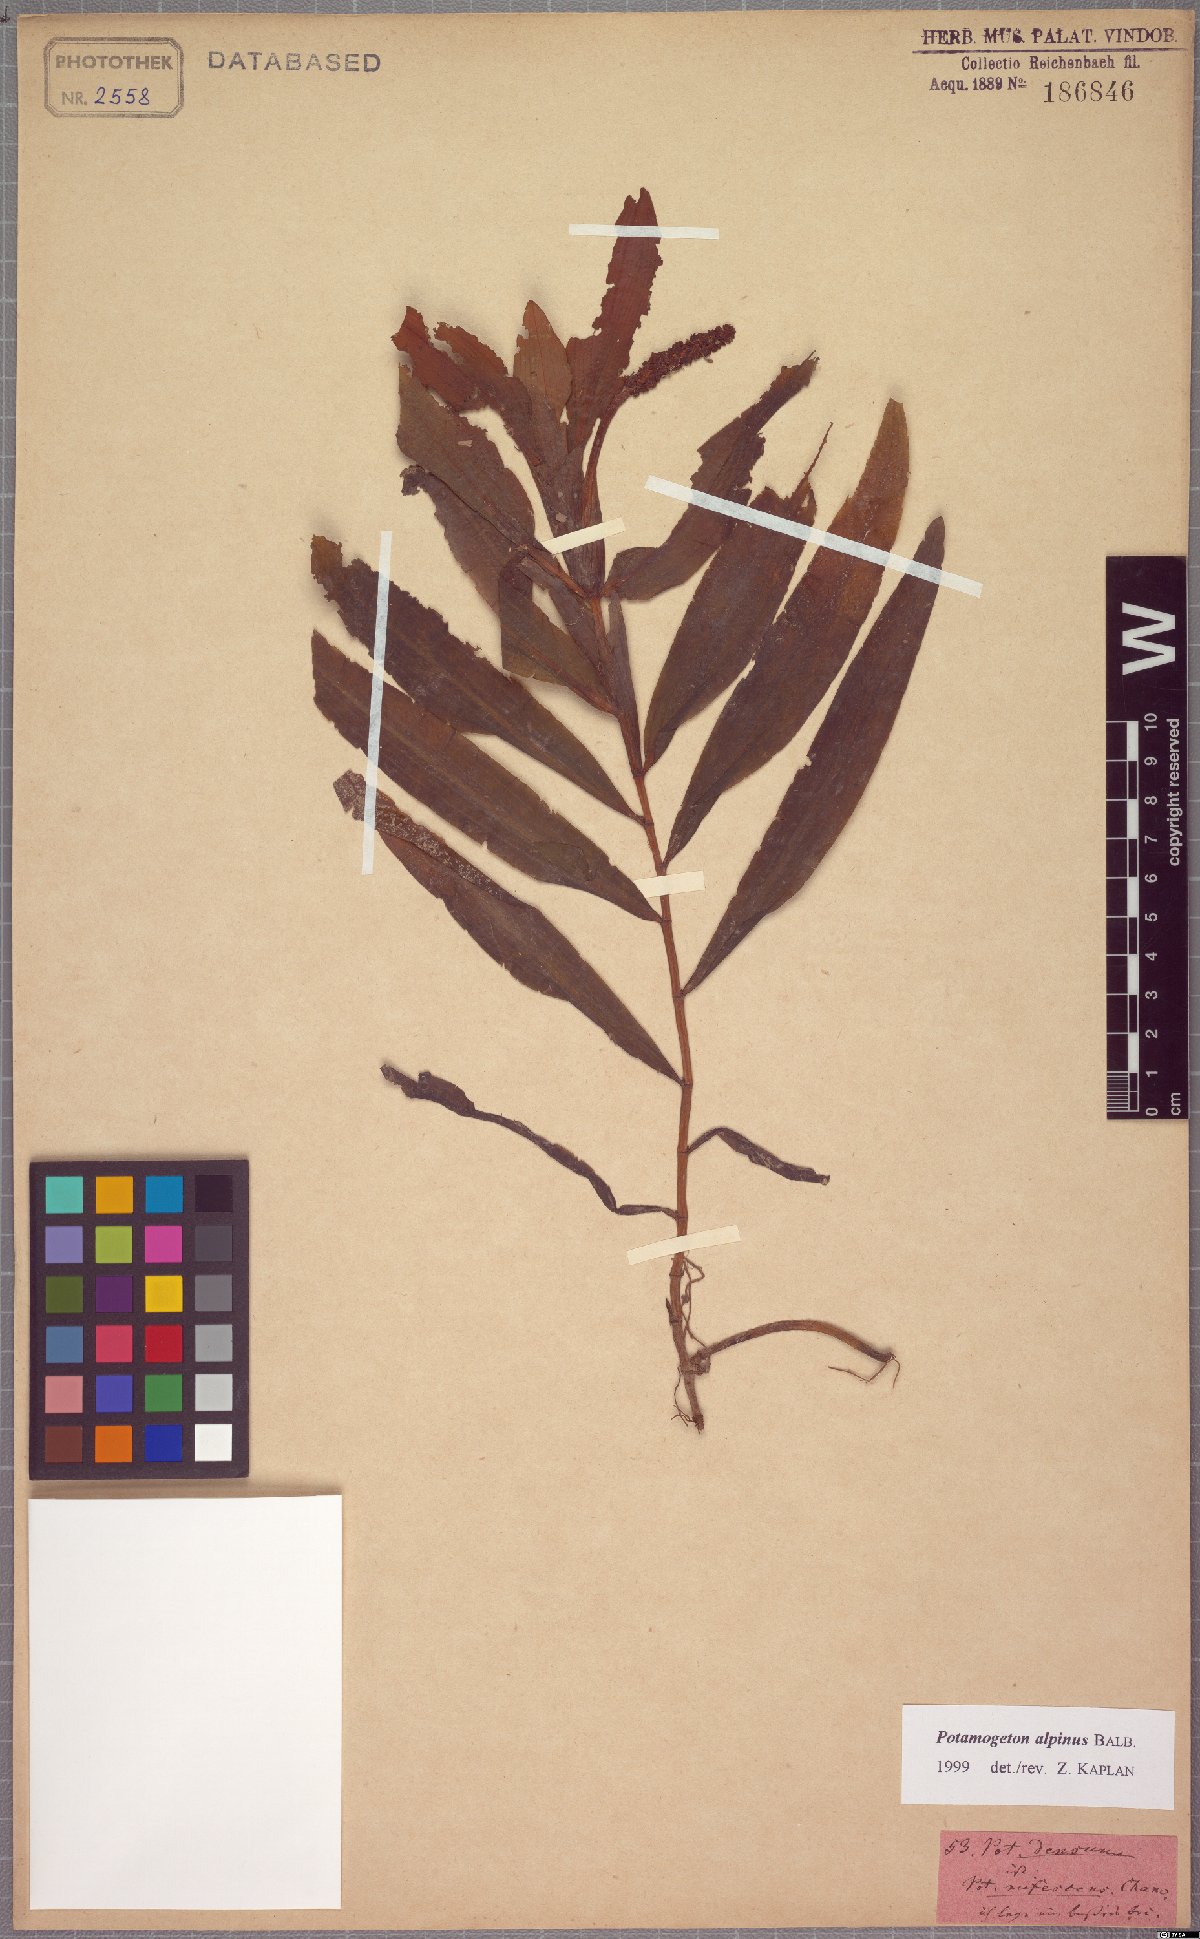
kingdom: Plantae
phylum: Tracheophyta
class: Liliopsida
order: Alismatales
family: Potamogetonaceae
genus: Potamogeton
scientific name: Potamogeton alpinus
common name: Red pondweed
